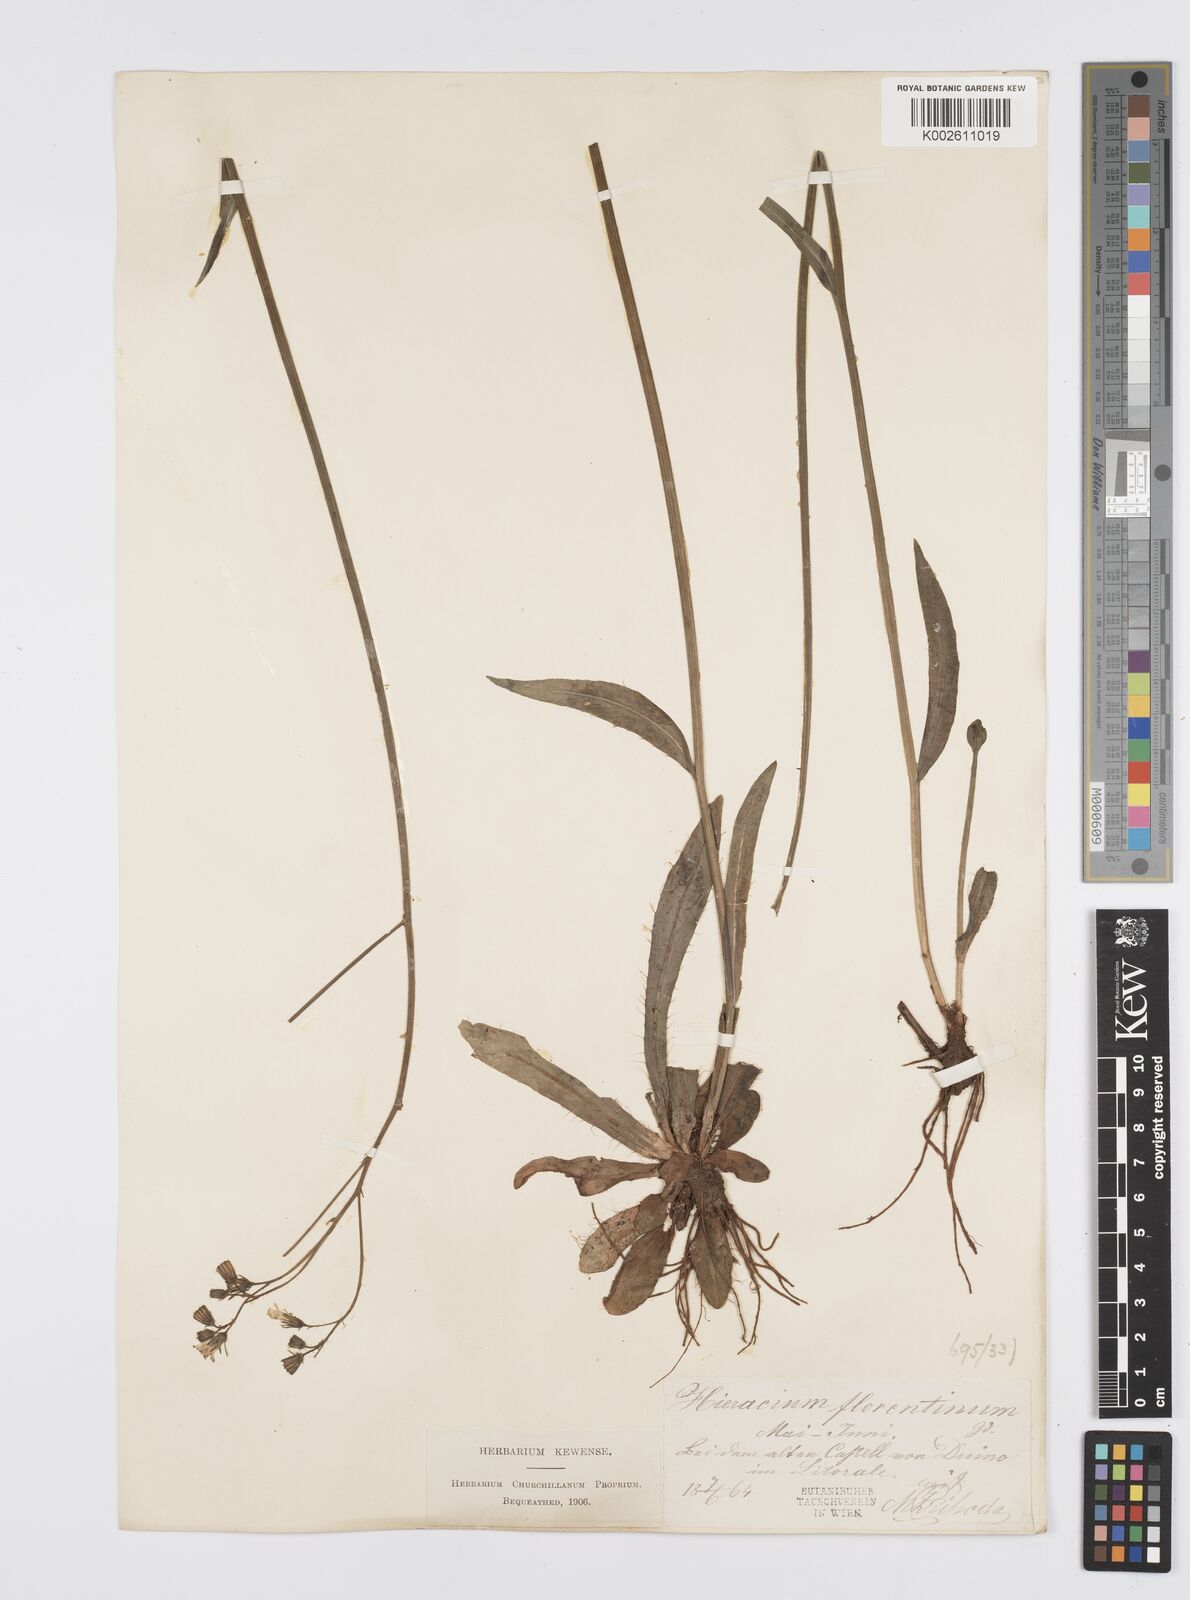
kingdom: Plantae
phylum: Tracheophyta
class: Magnoliopsida
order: Asterales
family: Asteraceae
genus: Pilosella
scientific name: Pilosella piloselloides
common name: Glaucous king-devil
